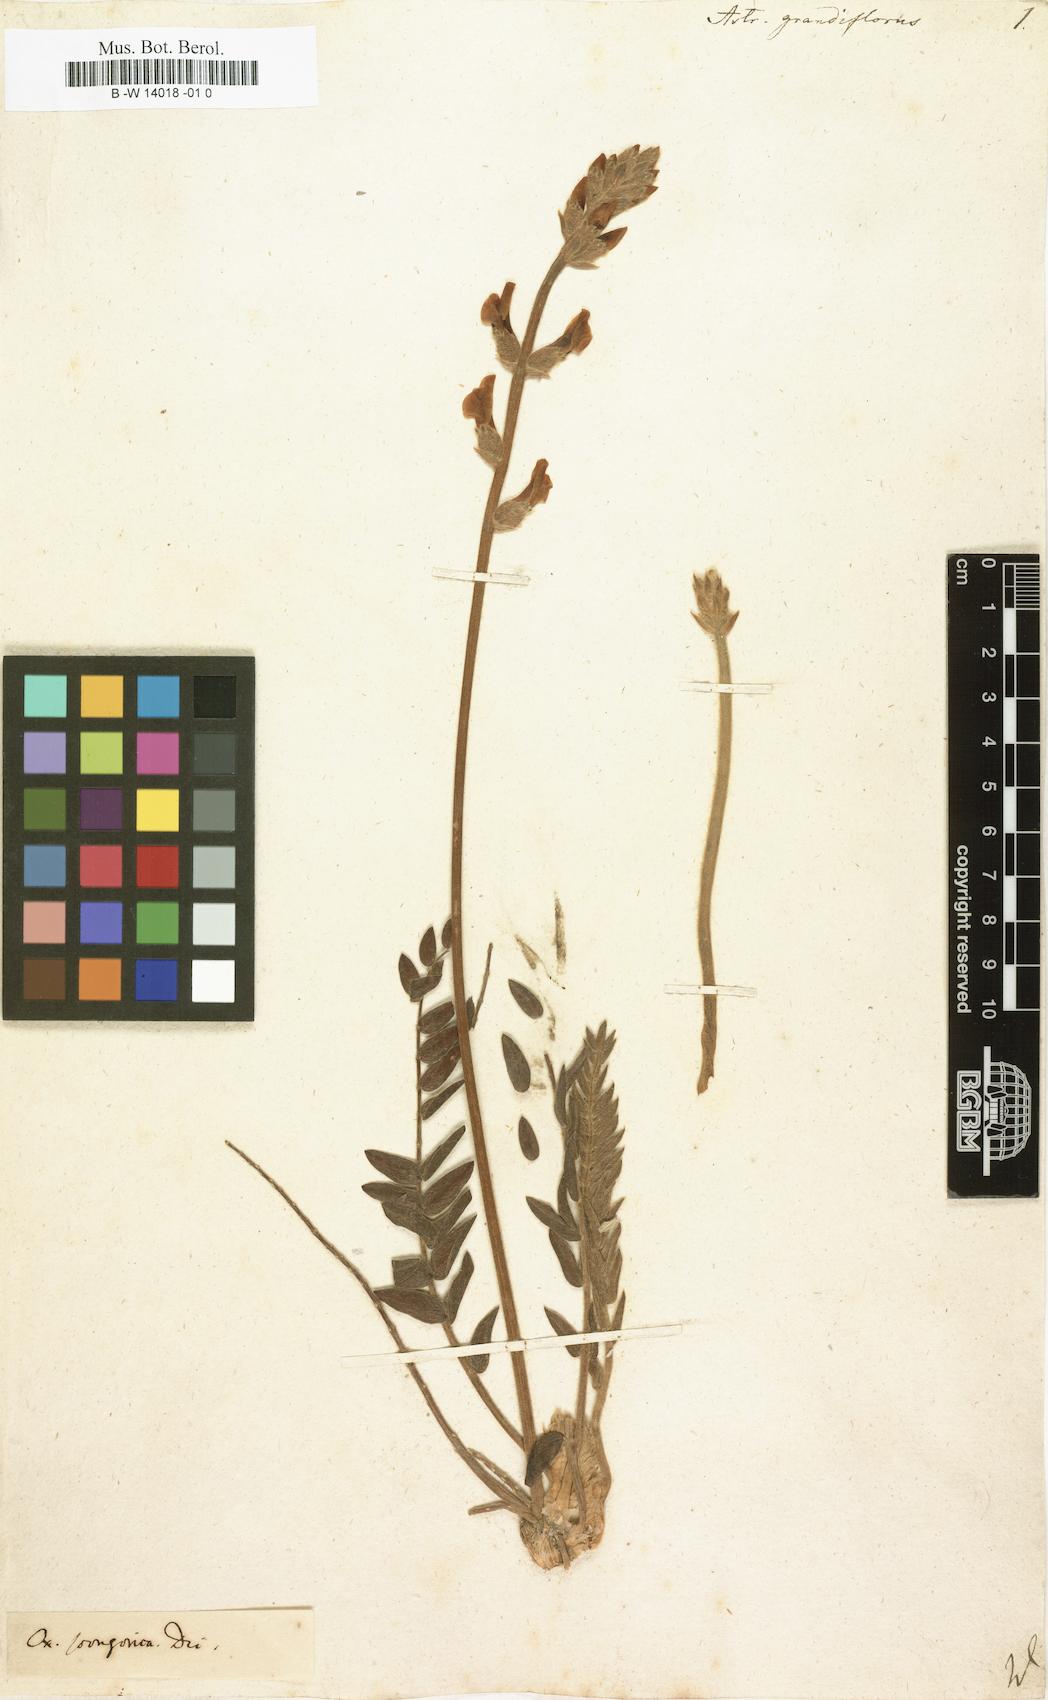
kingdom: Plantae
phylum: Tracheophyta
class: Magnoliopsida
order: Fabales
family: Fabaceae
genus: Oxytropis
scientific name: Oxytropis grandiflora
